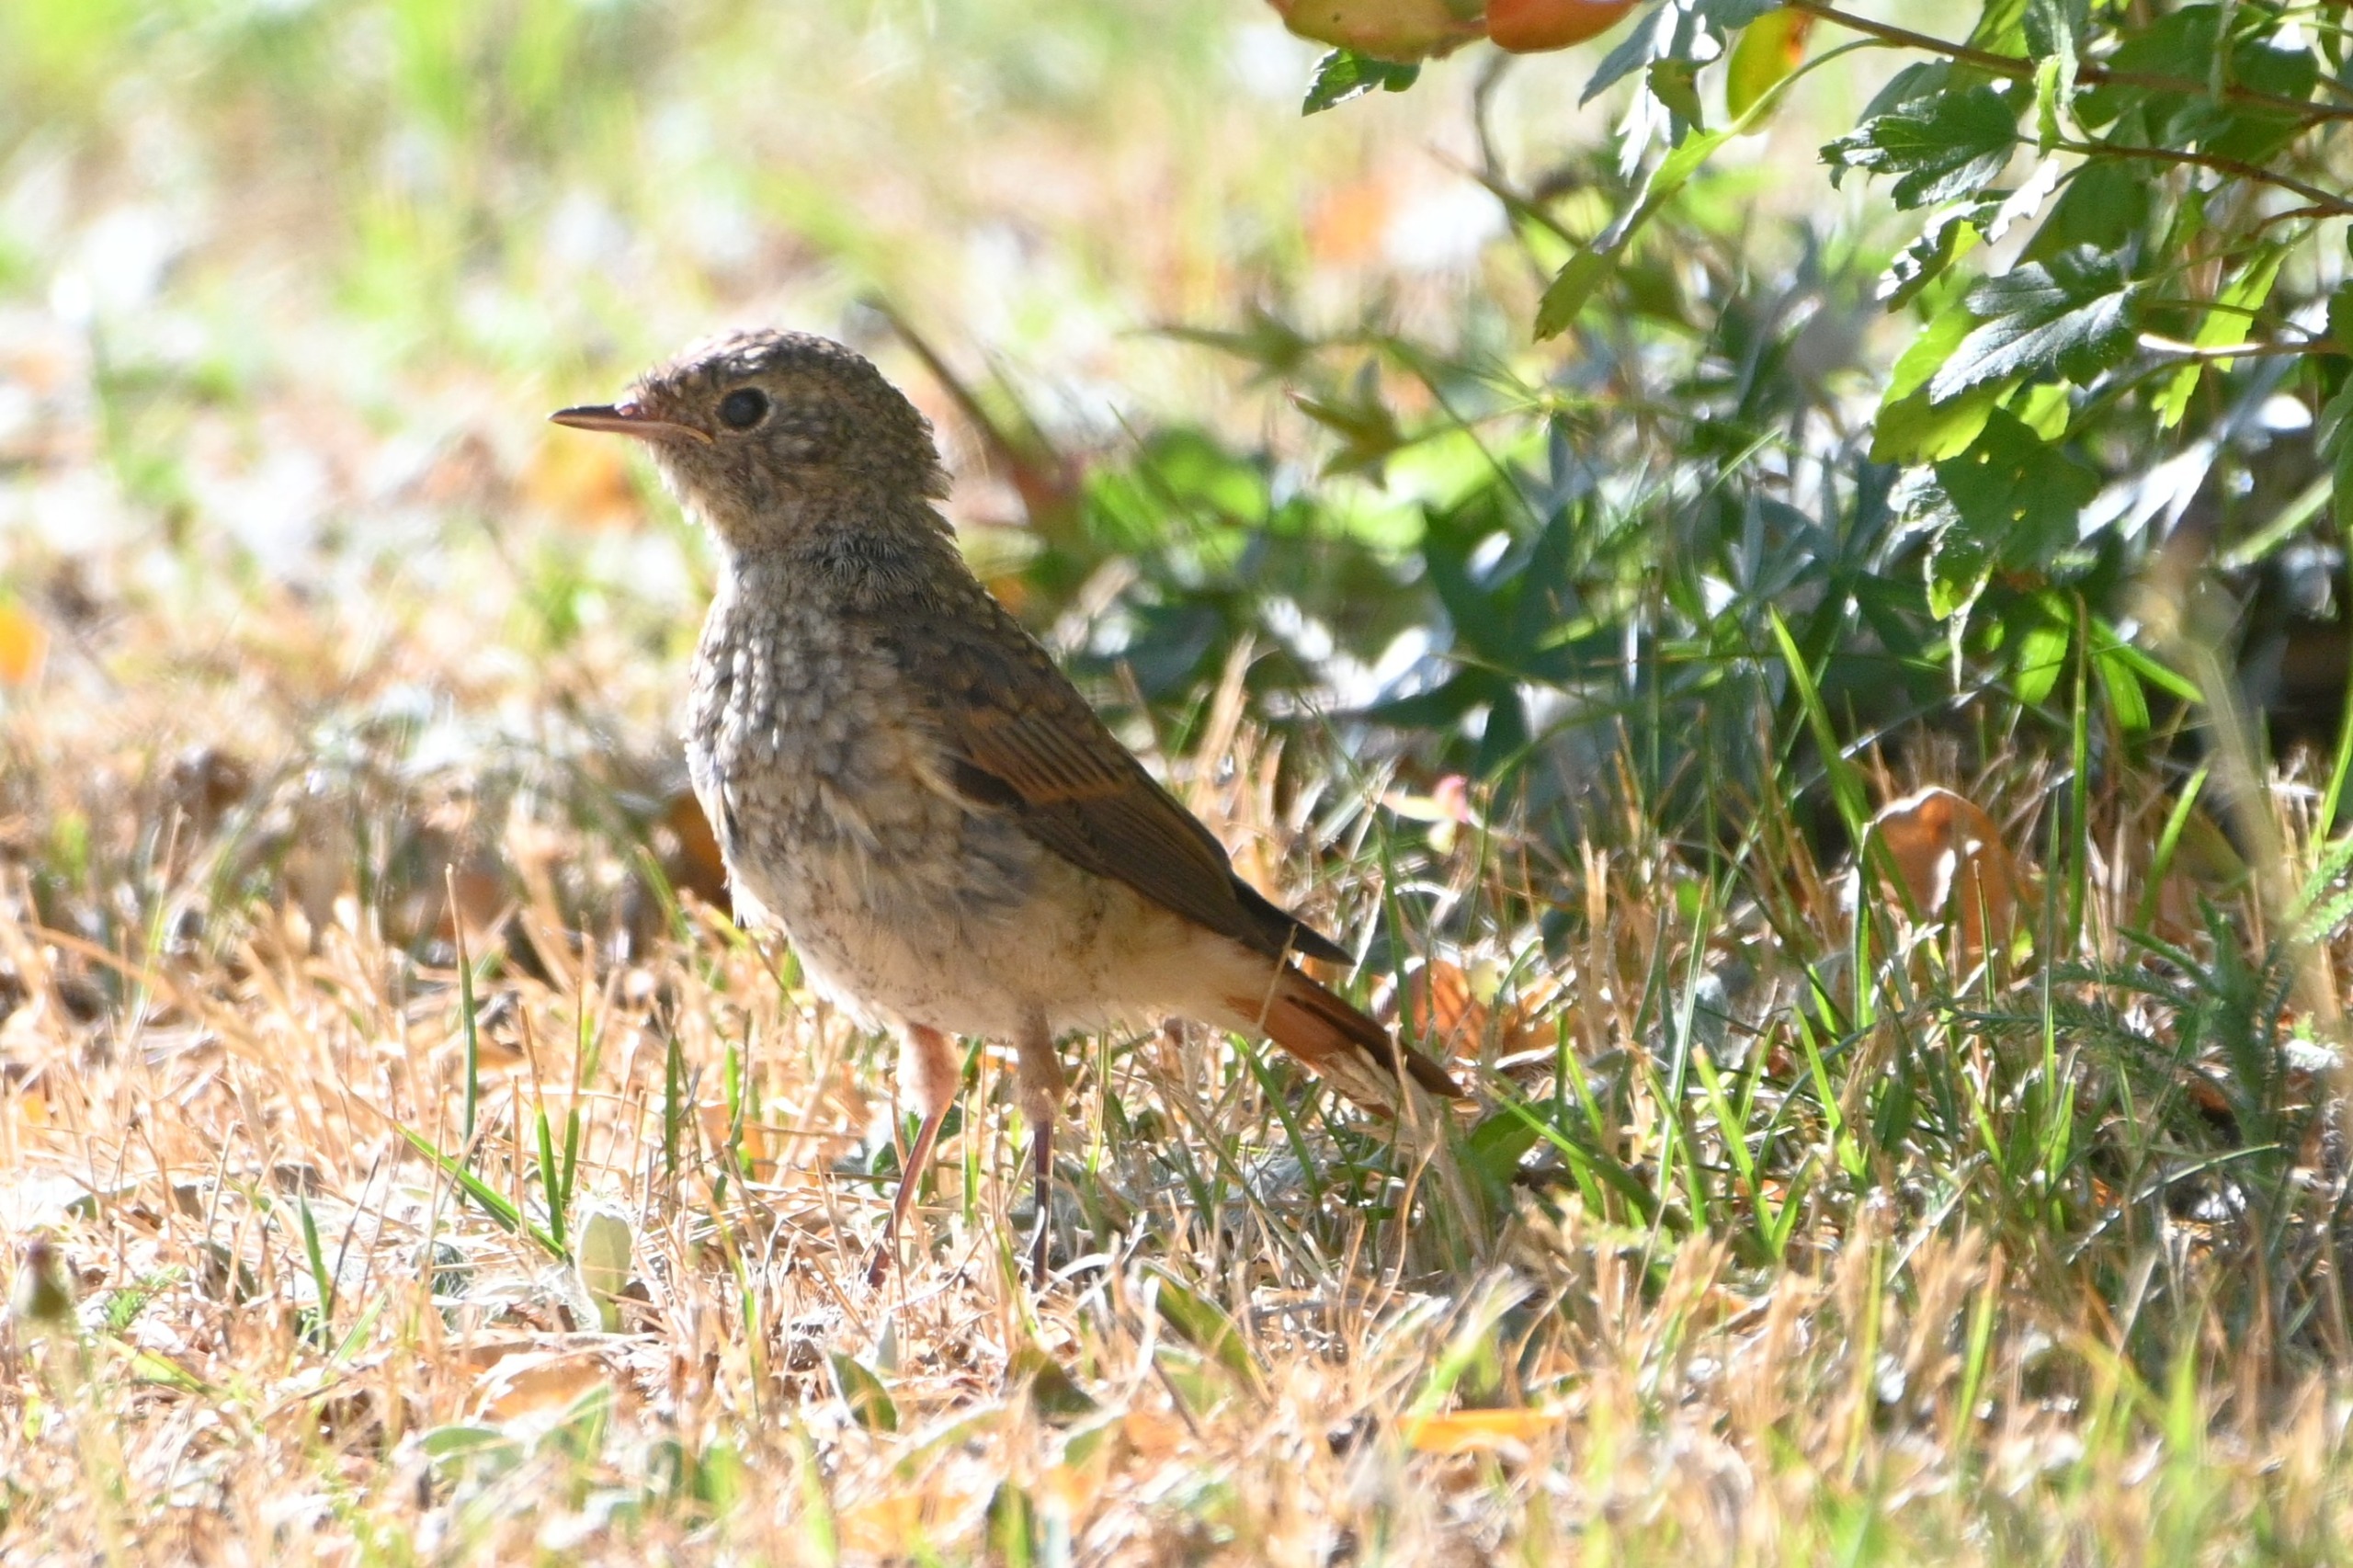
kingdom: Animalia
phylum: Chordata
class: Aves
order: Passeriformes
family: Muscicapidae
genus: Phoenicurus
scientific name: Phoenicurus phoenicurus
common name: Rødstjert
